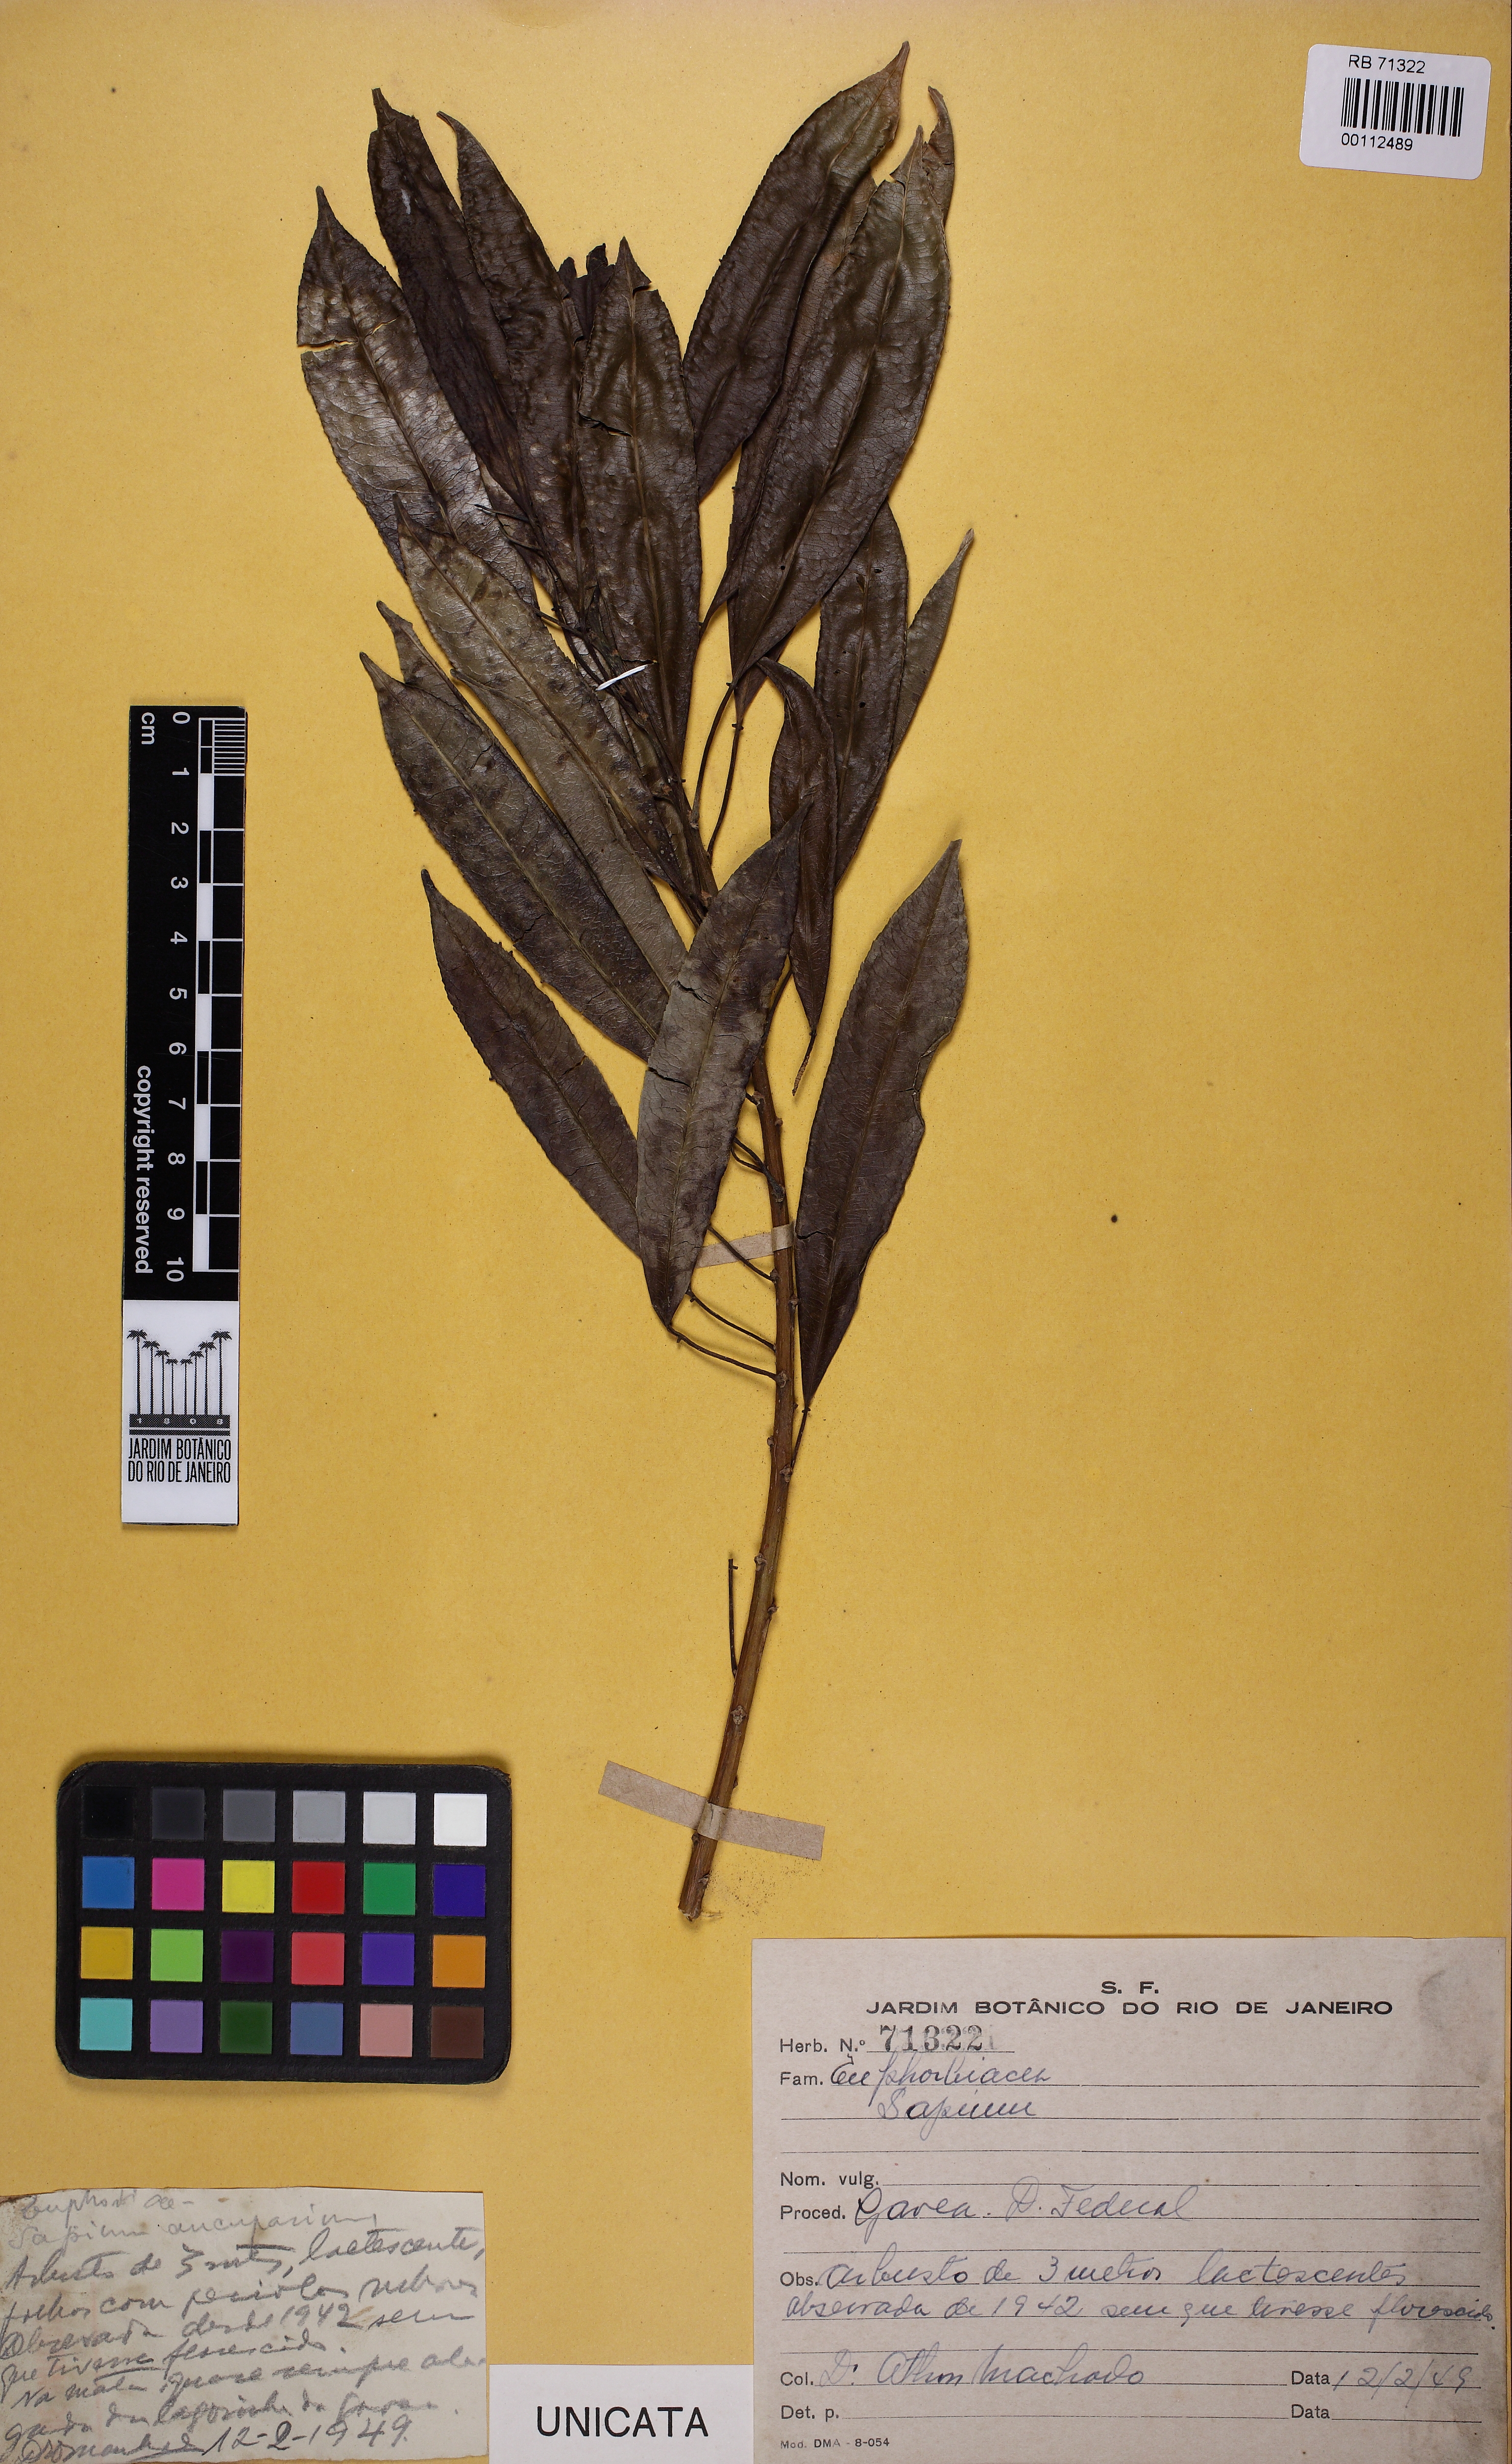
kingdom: Plantae
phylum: Tracheophyta
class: Magnoliopsida
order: Malpighiales
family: Euphorbiaceae
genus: Sapium
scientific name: Sapium
